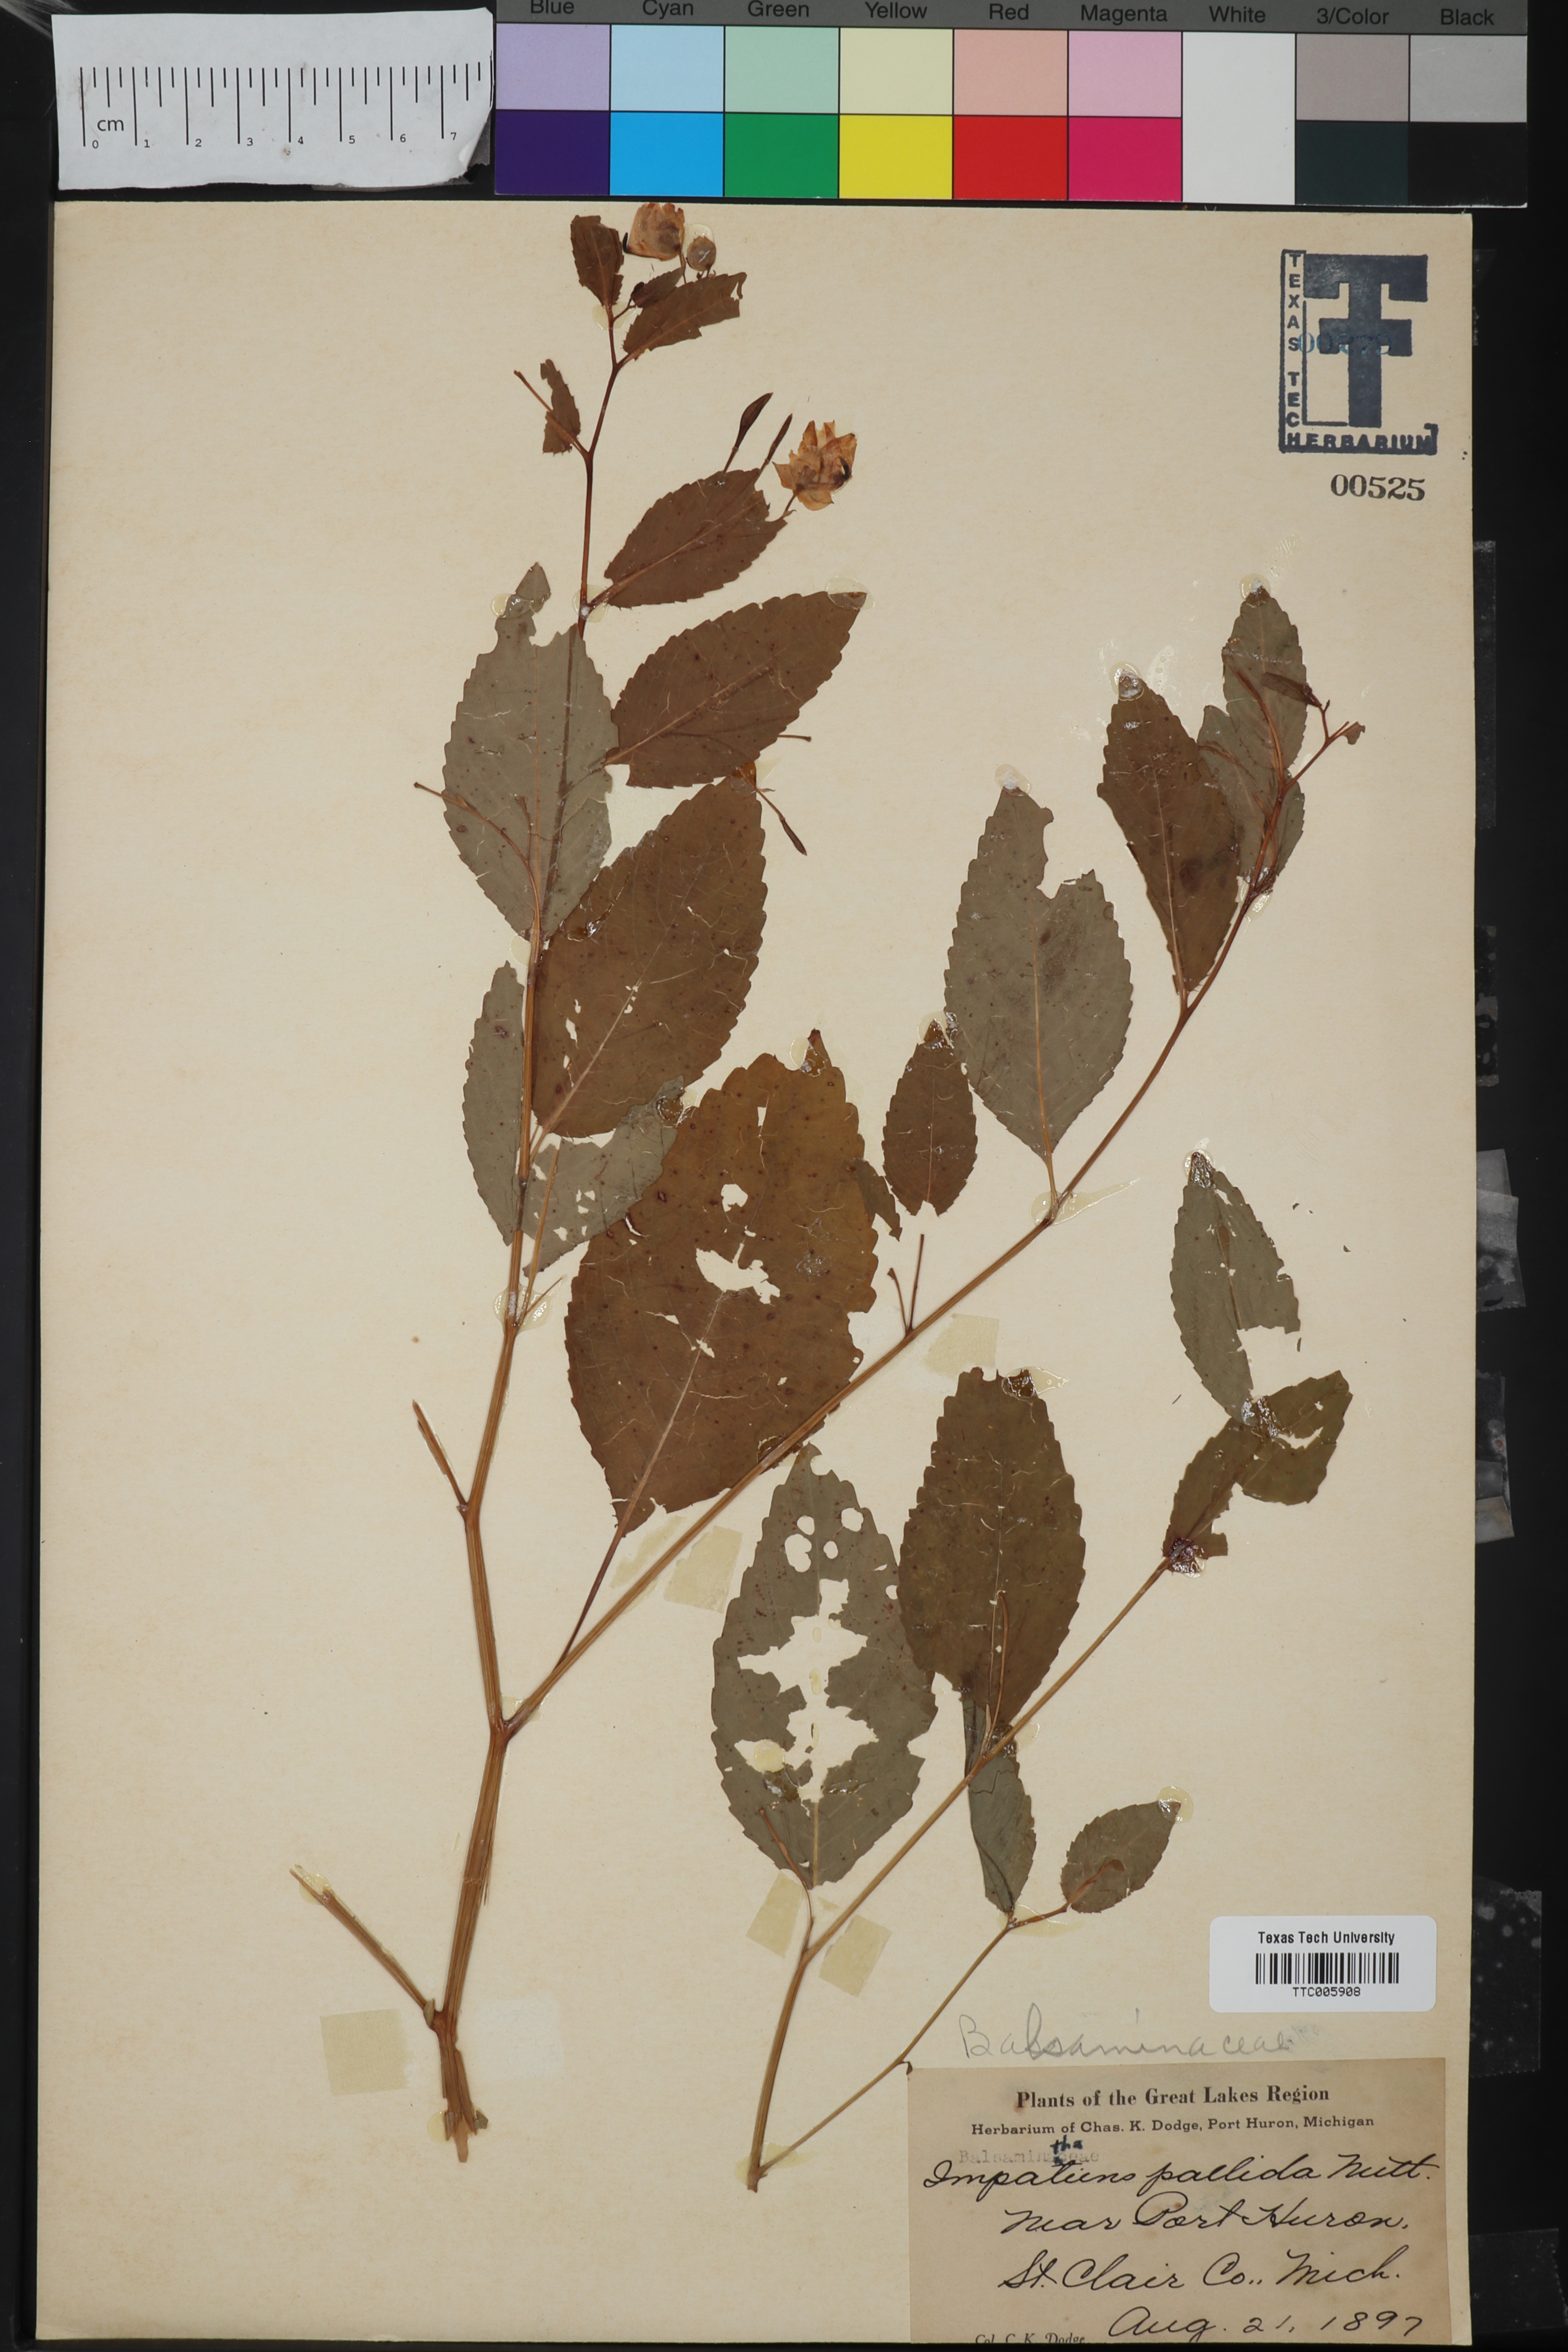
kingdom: Plantae
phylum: Tracheophyta
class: Magnoliopsida
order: Ericales
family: Balsaminaceae
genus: Impatiens
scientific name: Impatiens pallida
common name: Pale snapweed
